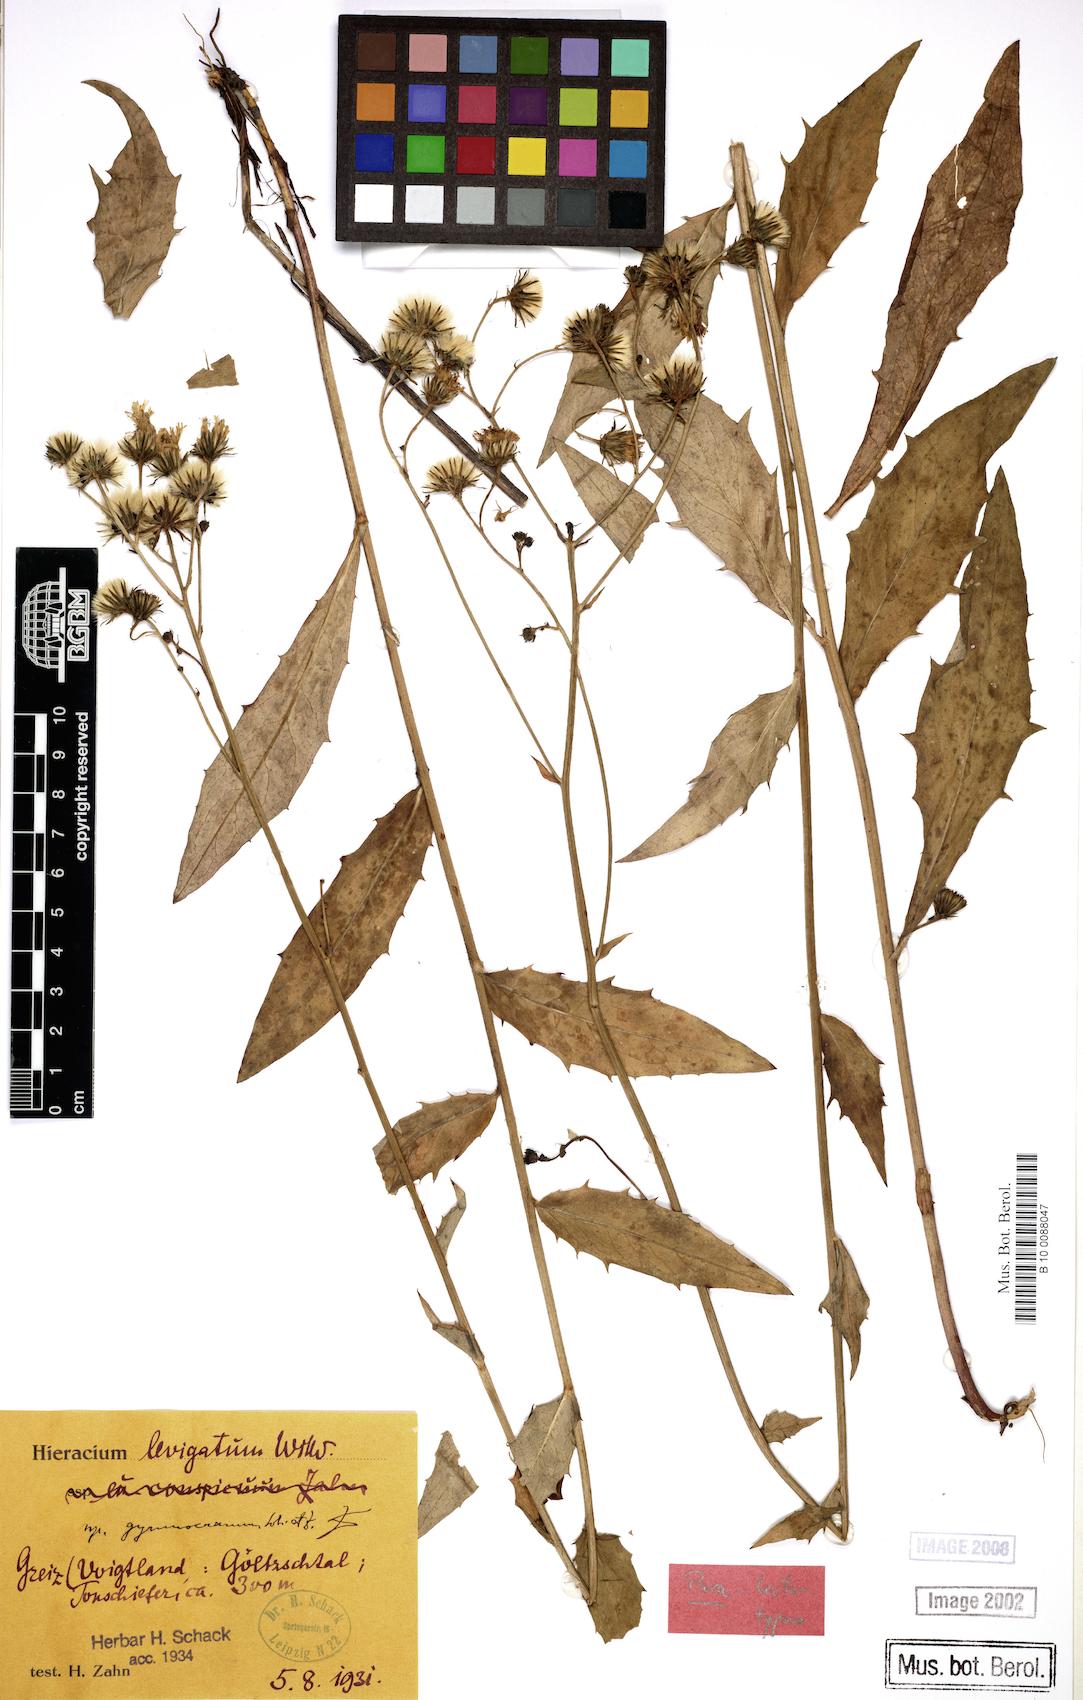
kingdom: Plantae
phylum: Tracheophyta
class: Magnoliopsida
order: Asterales
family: Asteraceae
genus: Hieracium
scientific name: Hieracium laevigatum
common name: Smooth hawkweed
